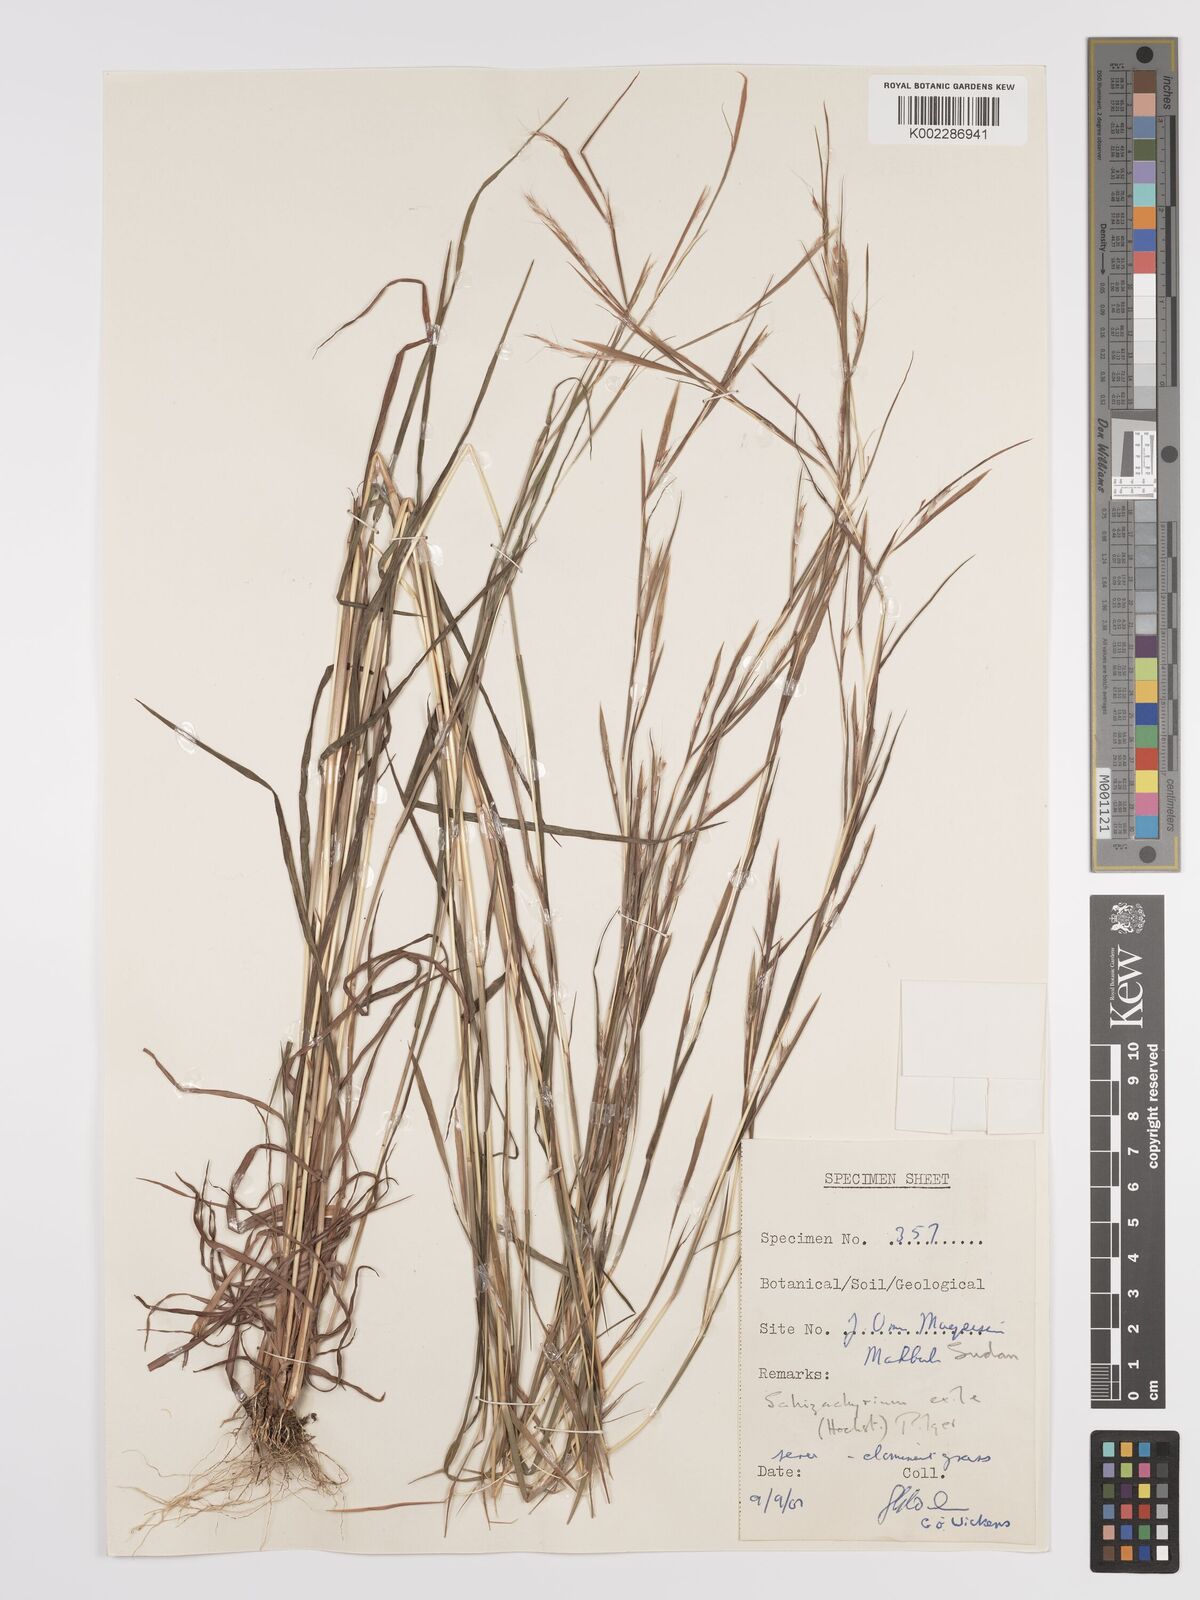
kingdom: Plantae
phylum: Tracheophyta
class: Liliopsida
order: Poales
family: Poaceae
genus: Schizachyrium
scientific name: Schizachyrium exile
